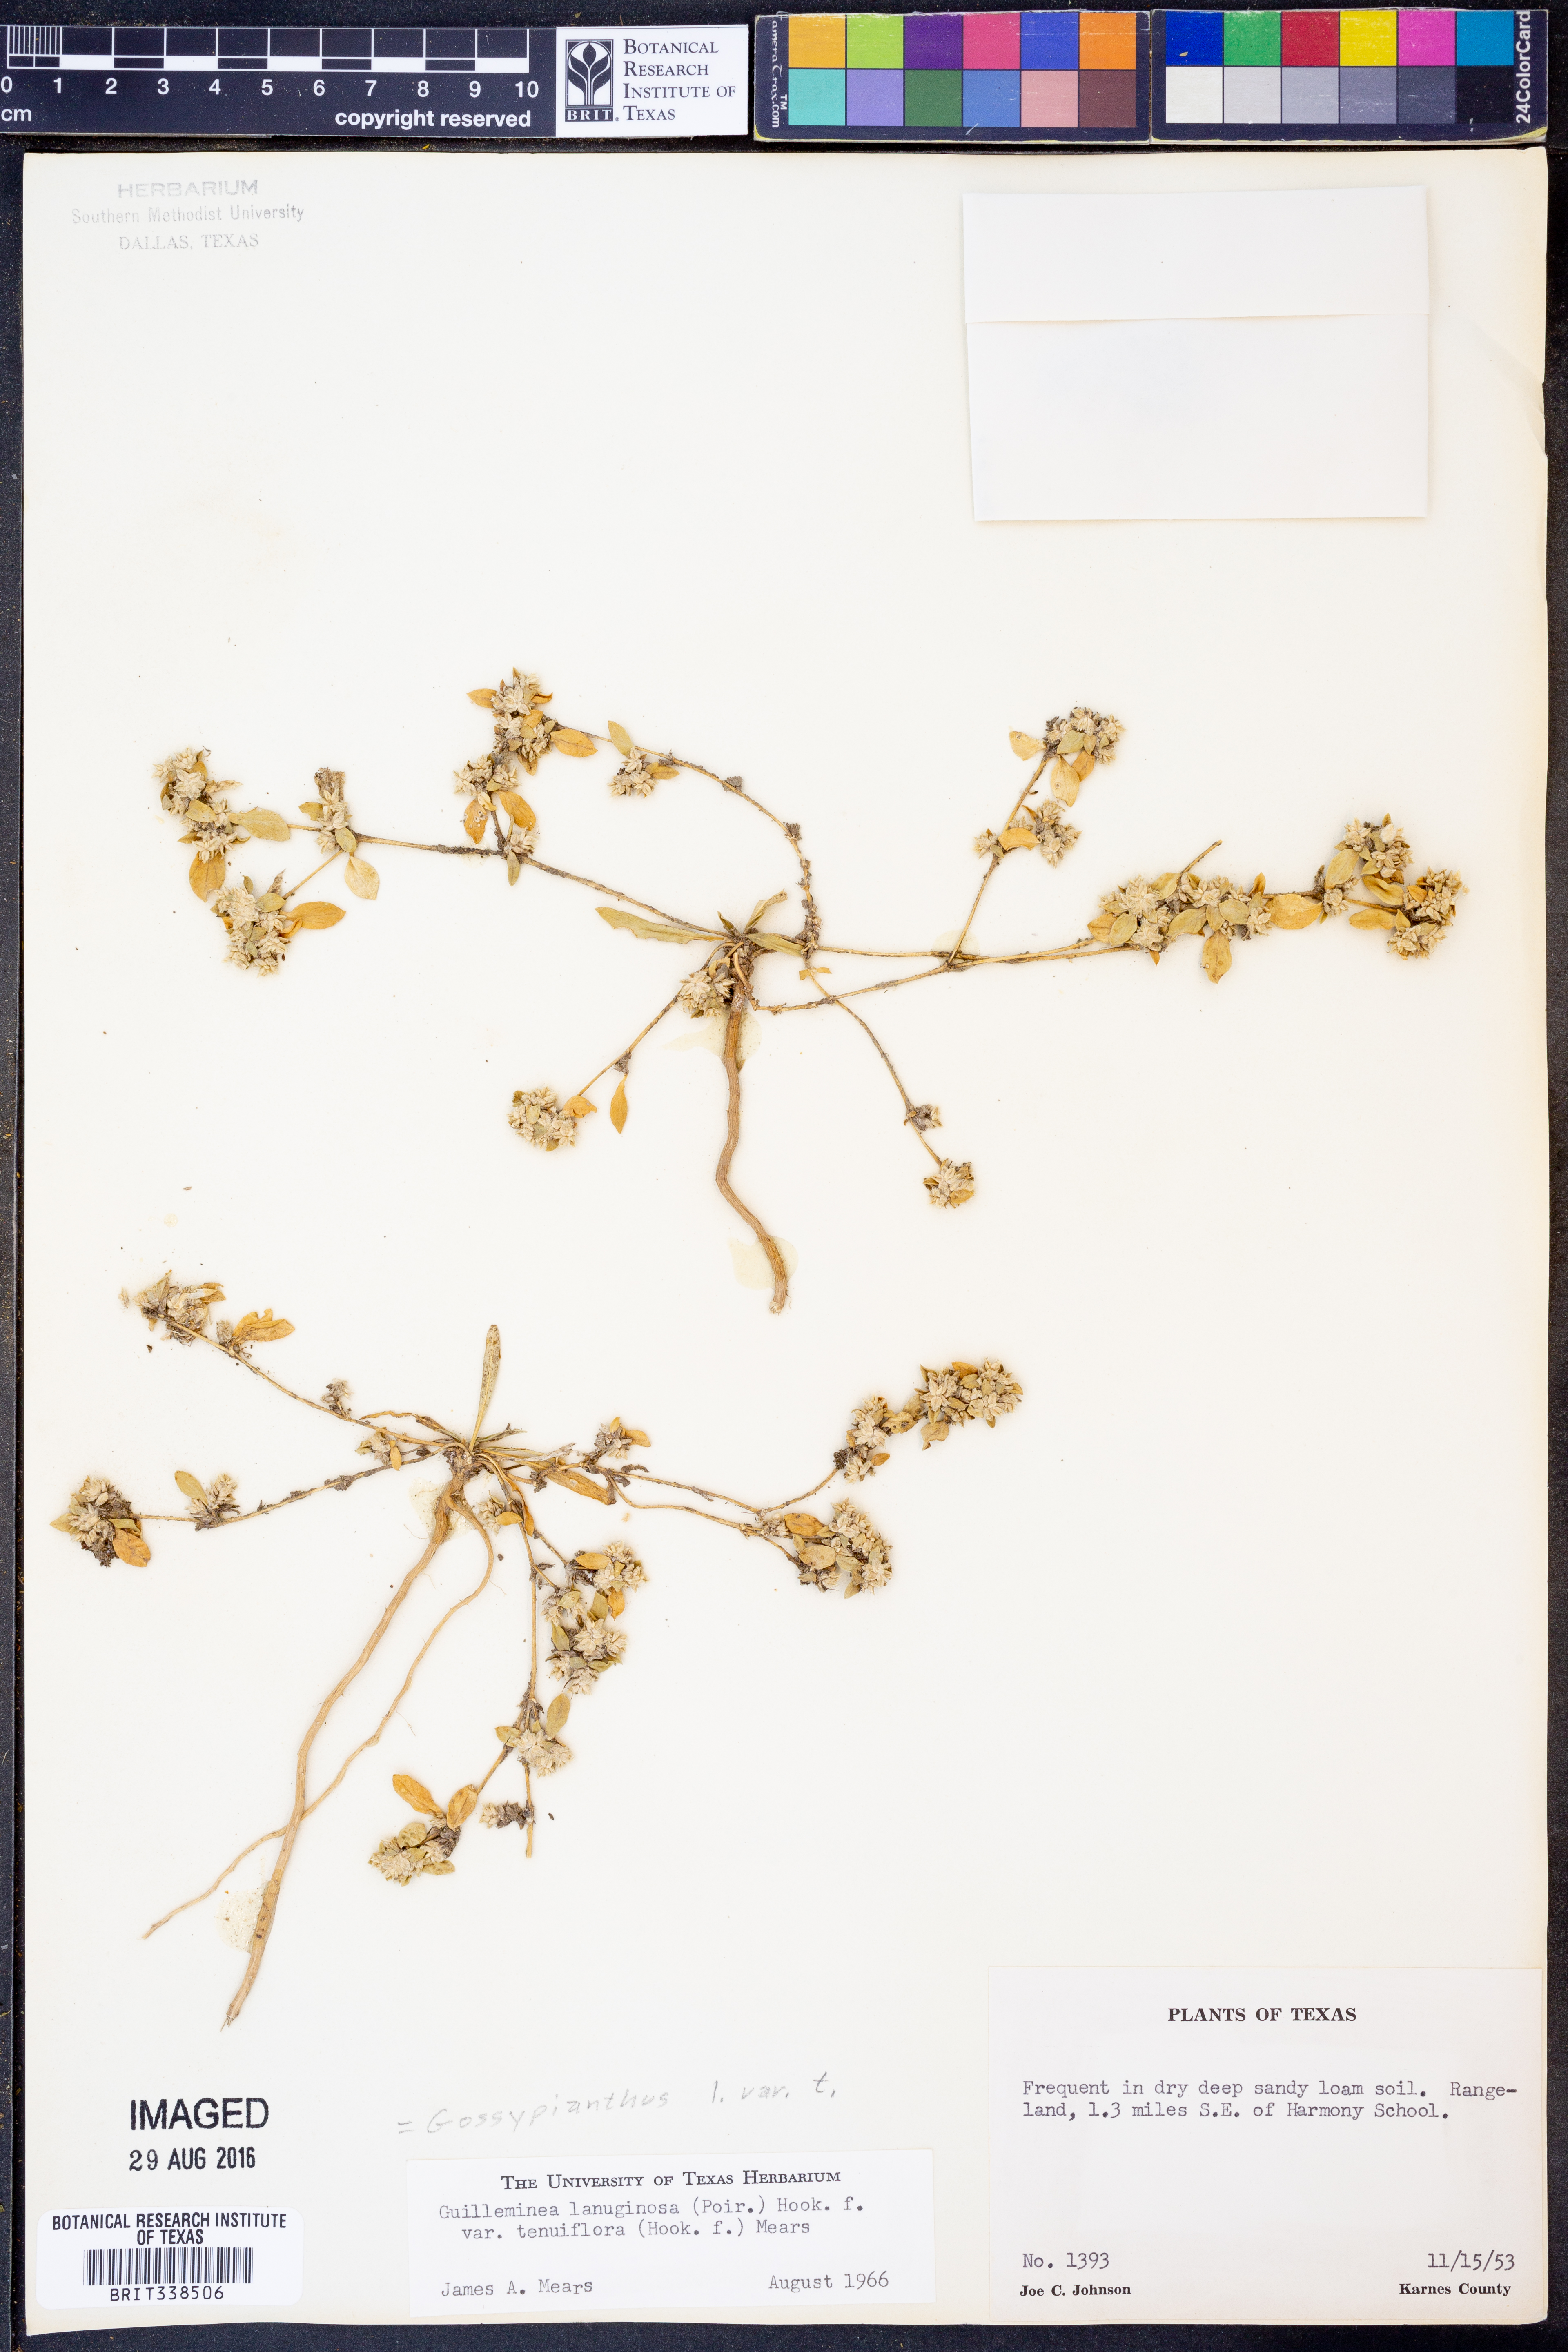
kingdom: Plantae
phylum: Tracheophyta
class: Magnoliopsida
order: Caryophyllales
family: Amaranthaceae
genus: Gomphrena
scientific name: Gomphrena lanuparonychioides
